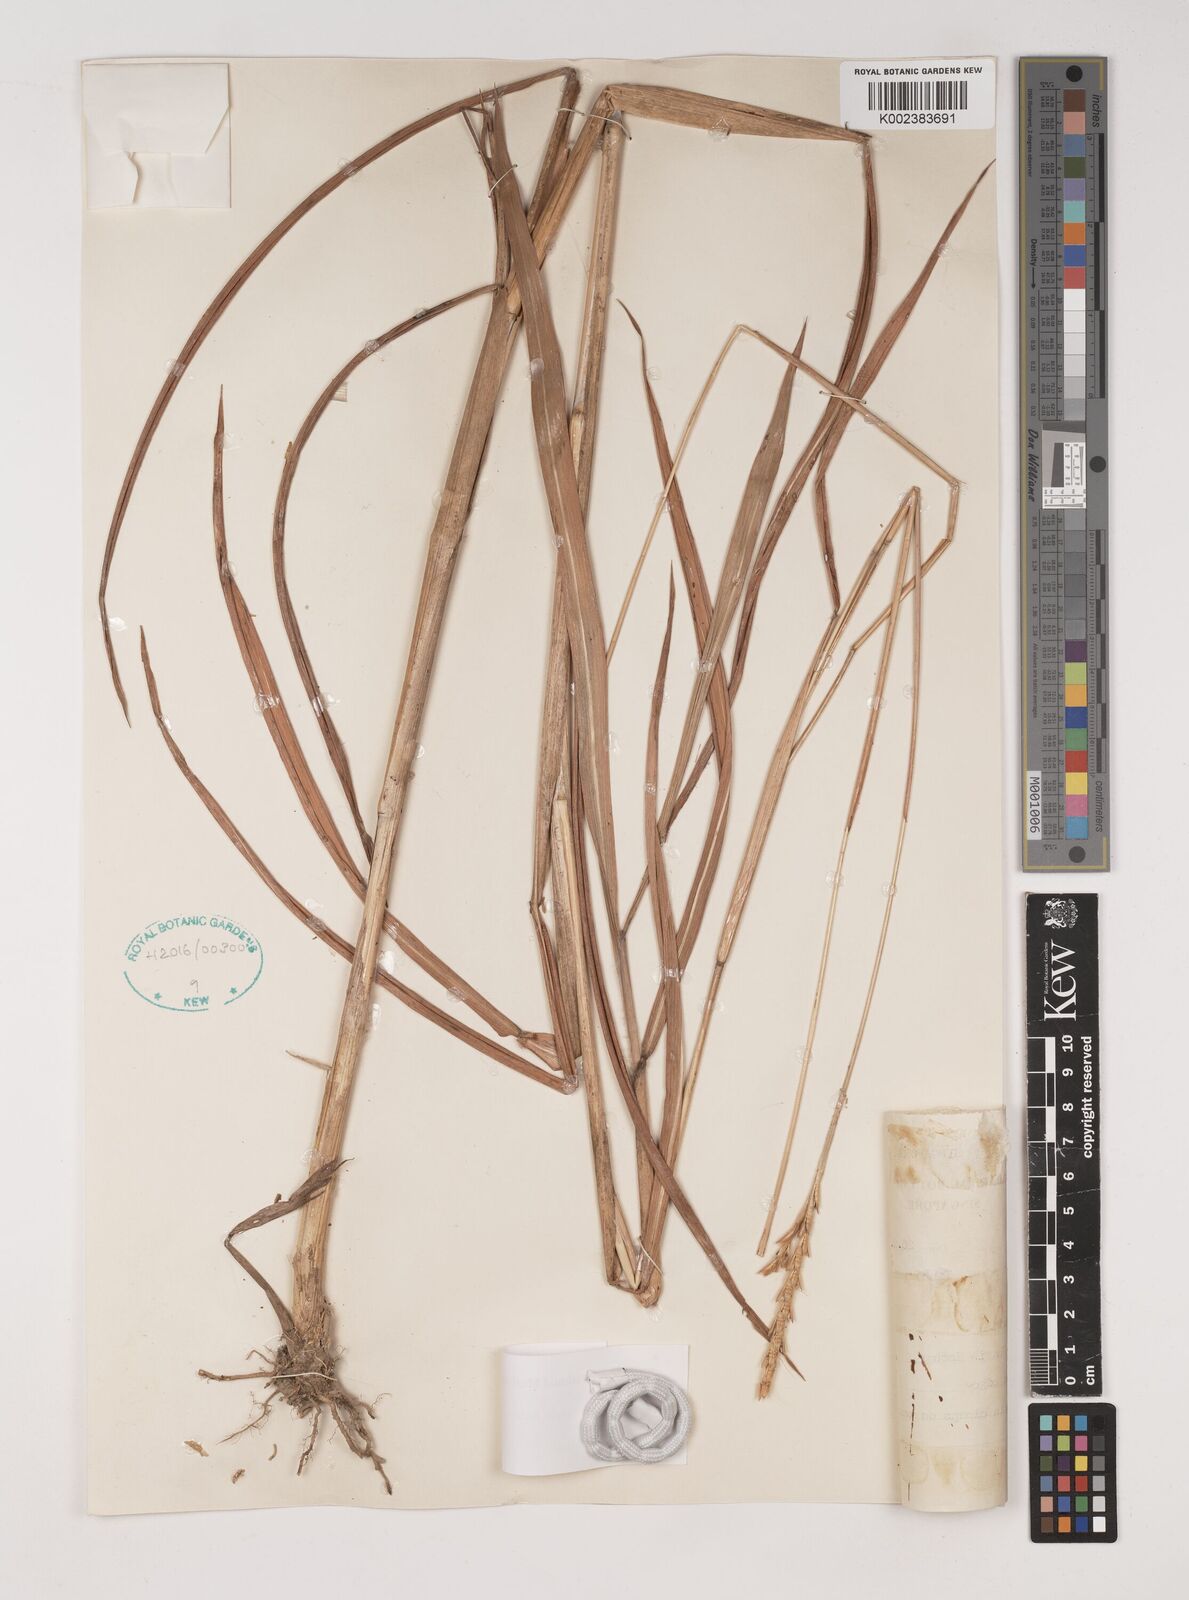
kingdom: Plantae
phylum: Tracheophyta
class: Liliopsida
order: Poales
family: Poaceae
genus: Ischaemum
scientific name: Ischaemum barbatum
